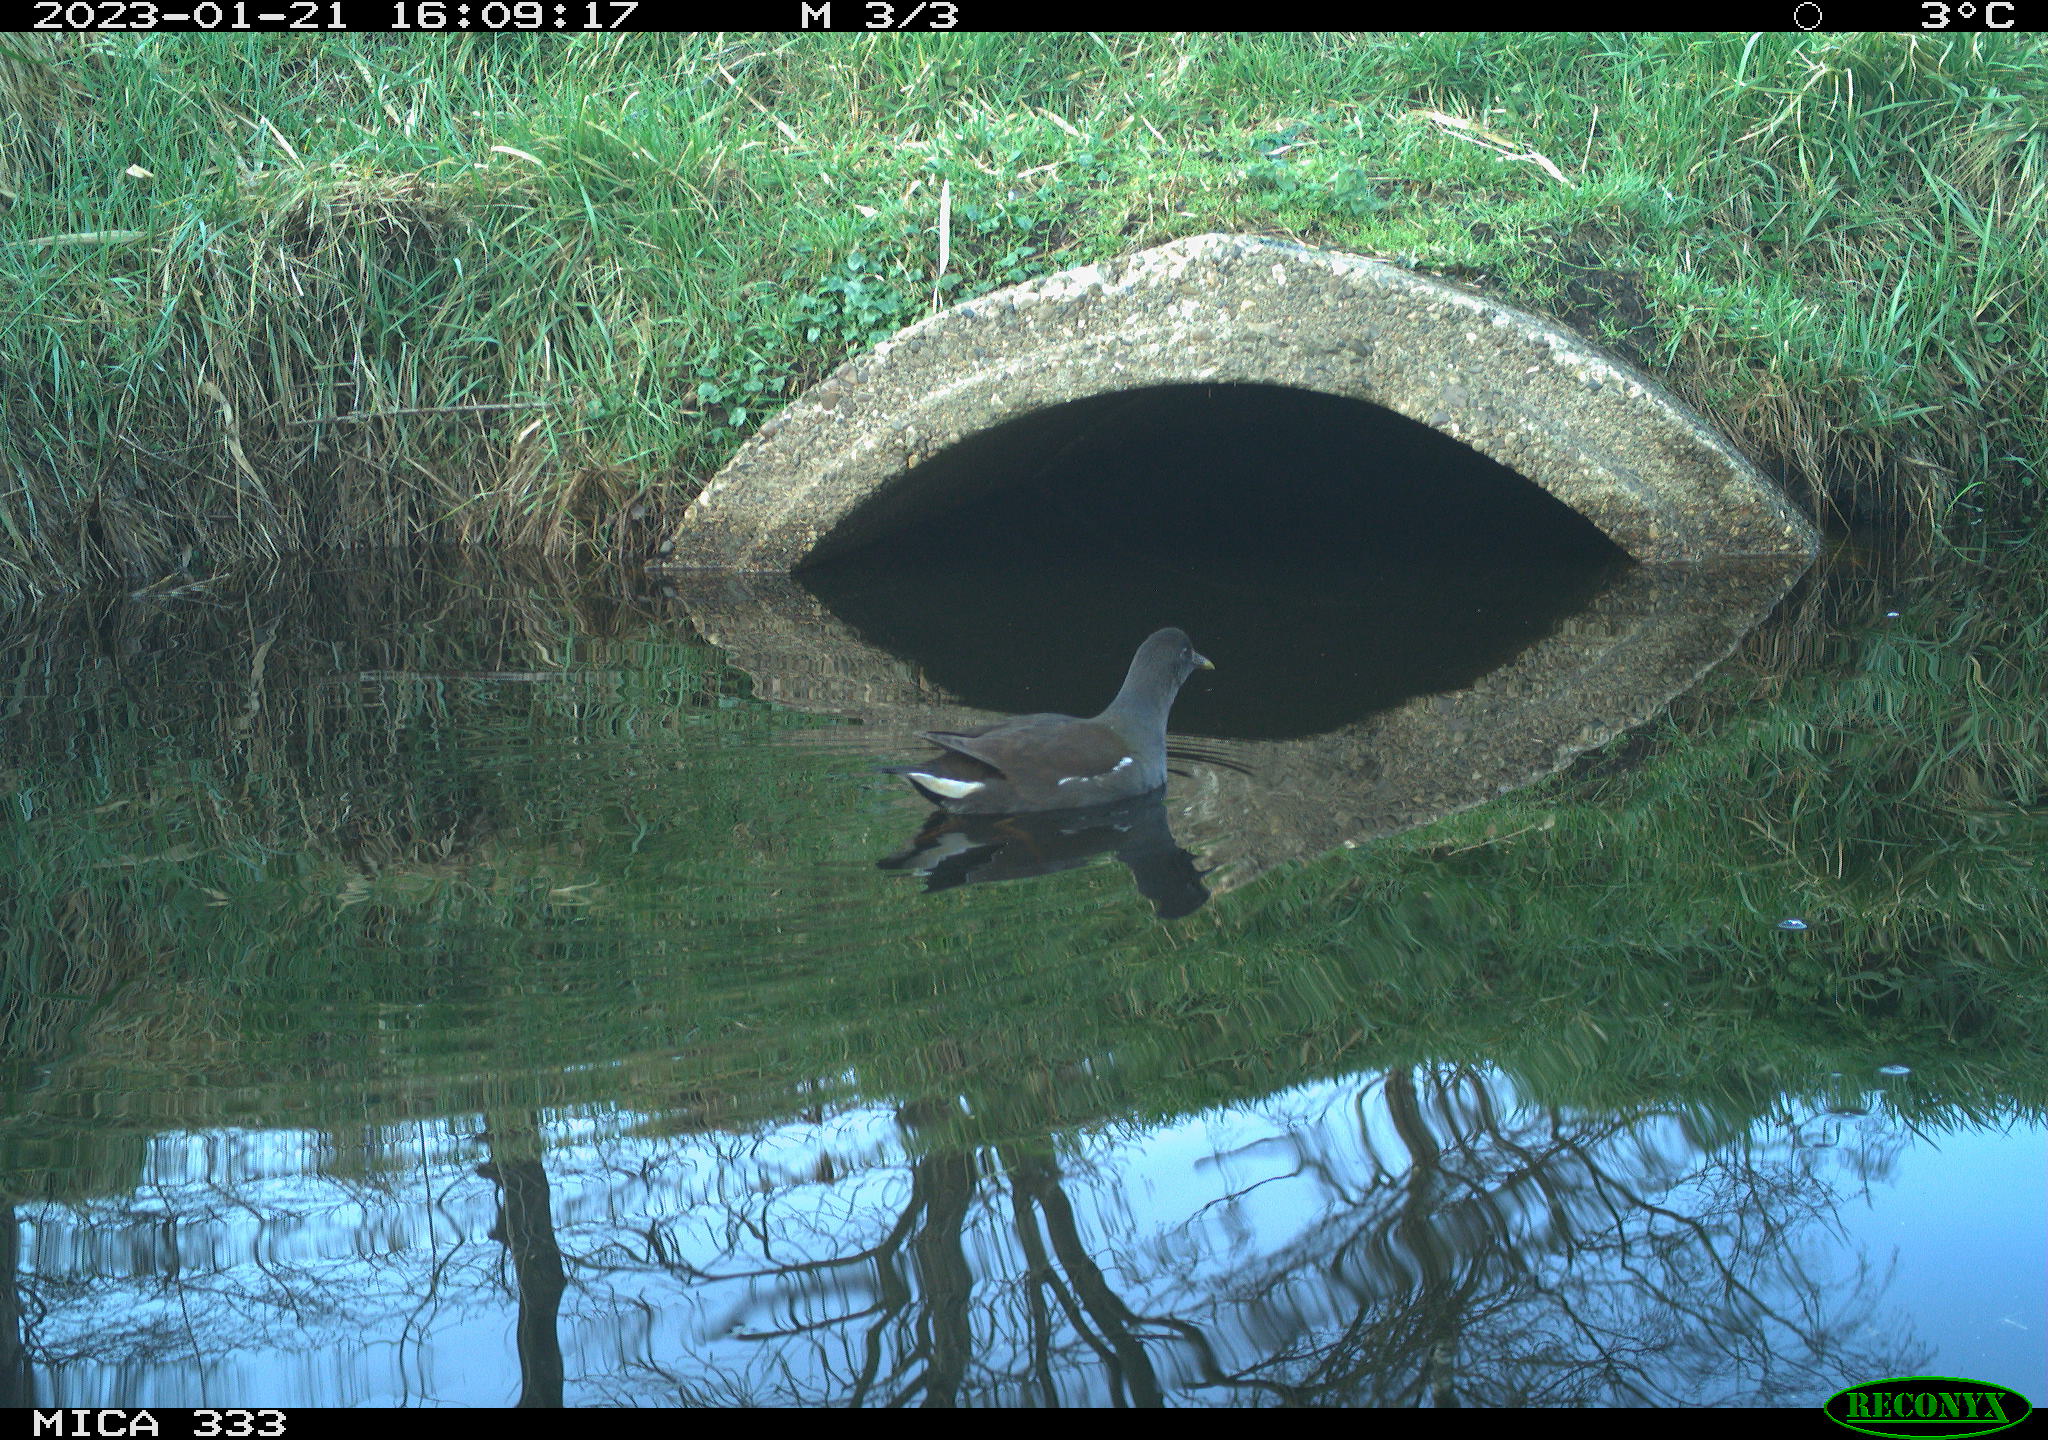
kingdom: Animalia
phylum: Chordata
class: Aves
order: Gruiformes
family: Rallidae
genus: Gallinula
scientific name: Gallinula chloropus
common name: Common moorhen
